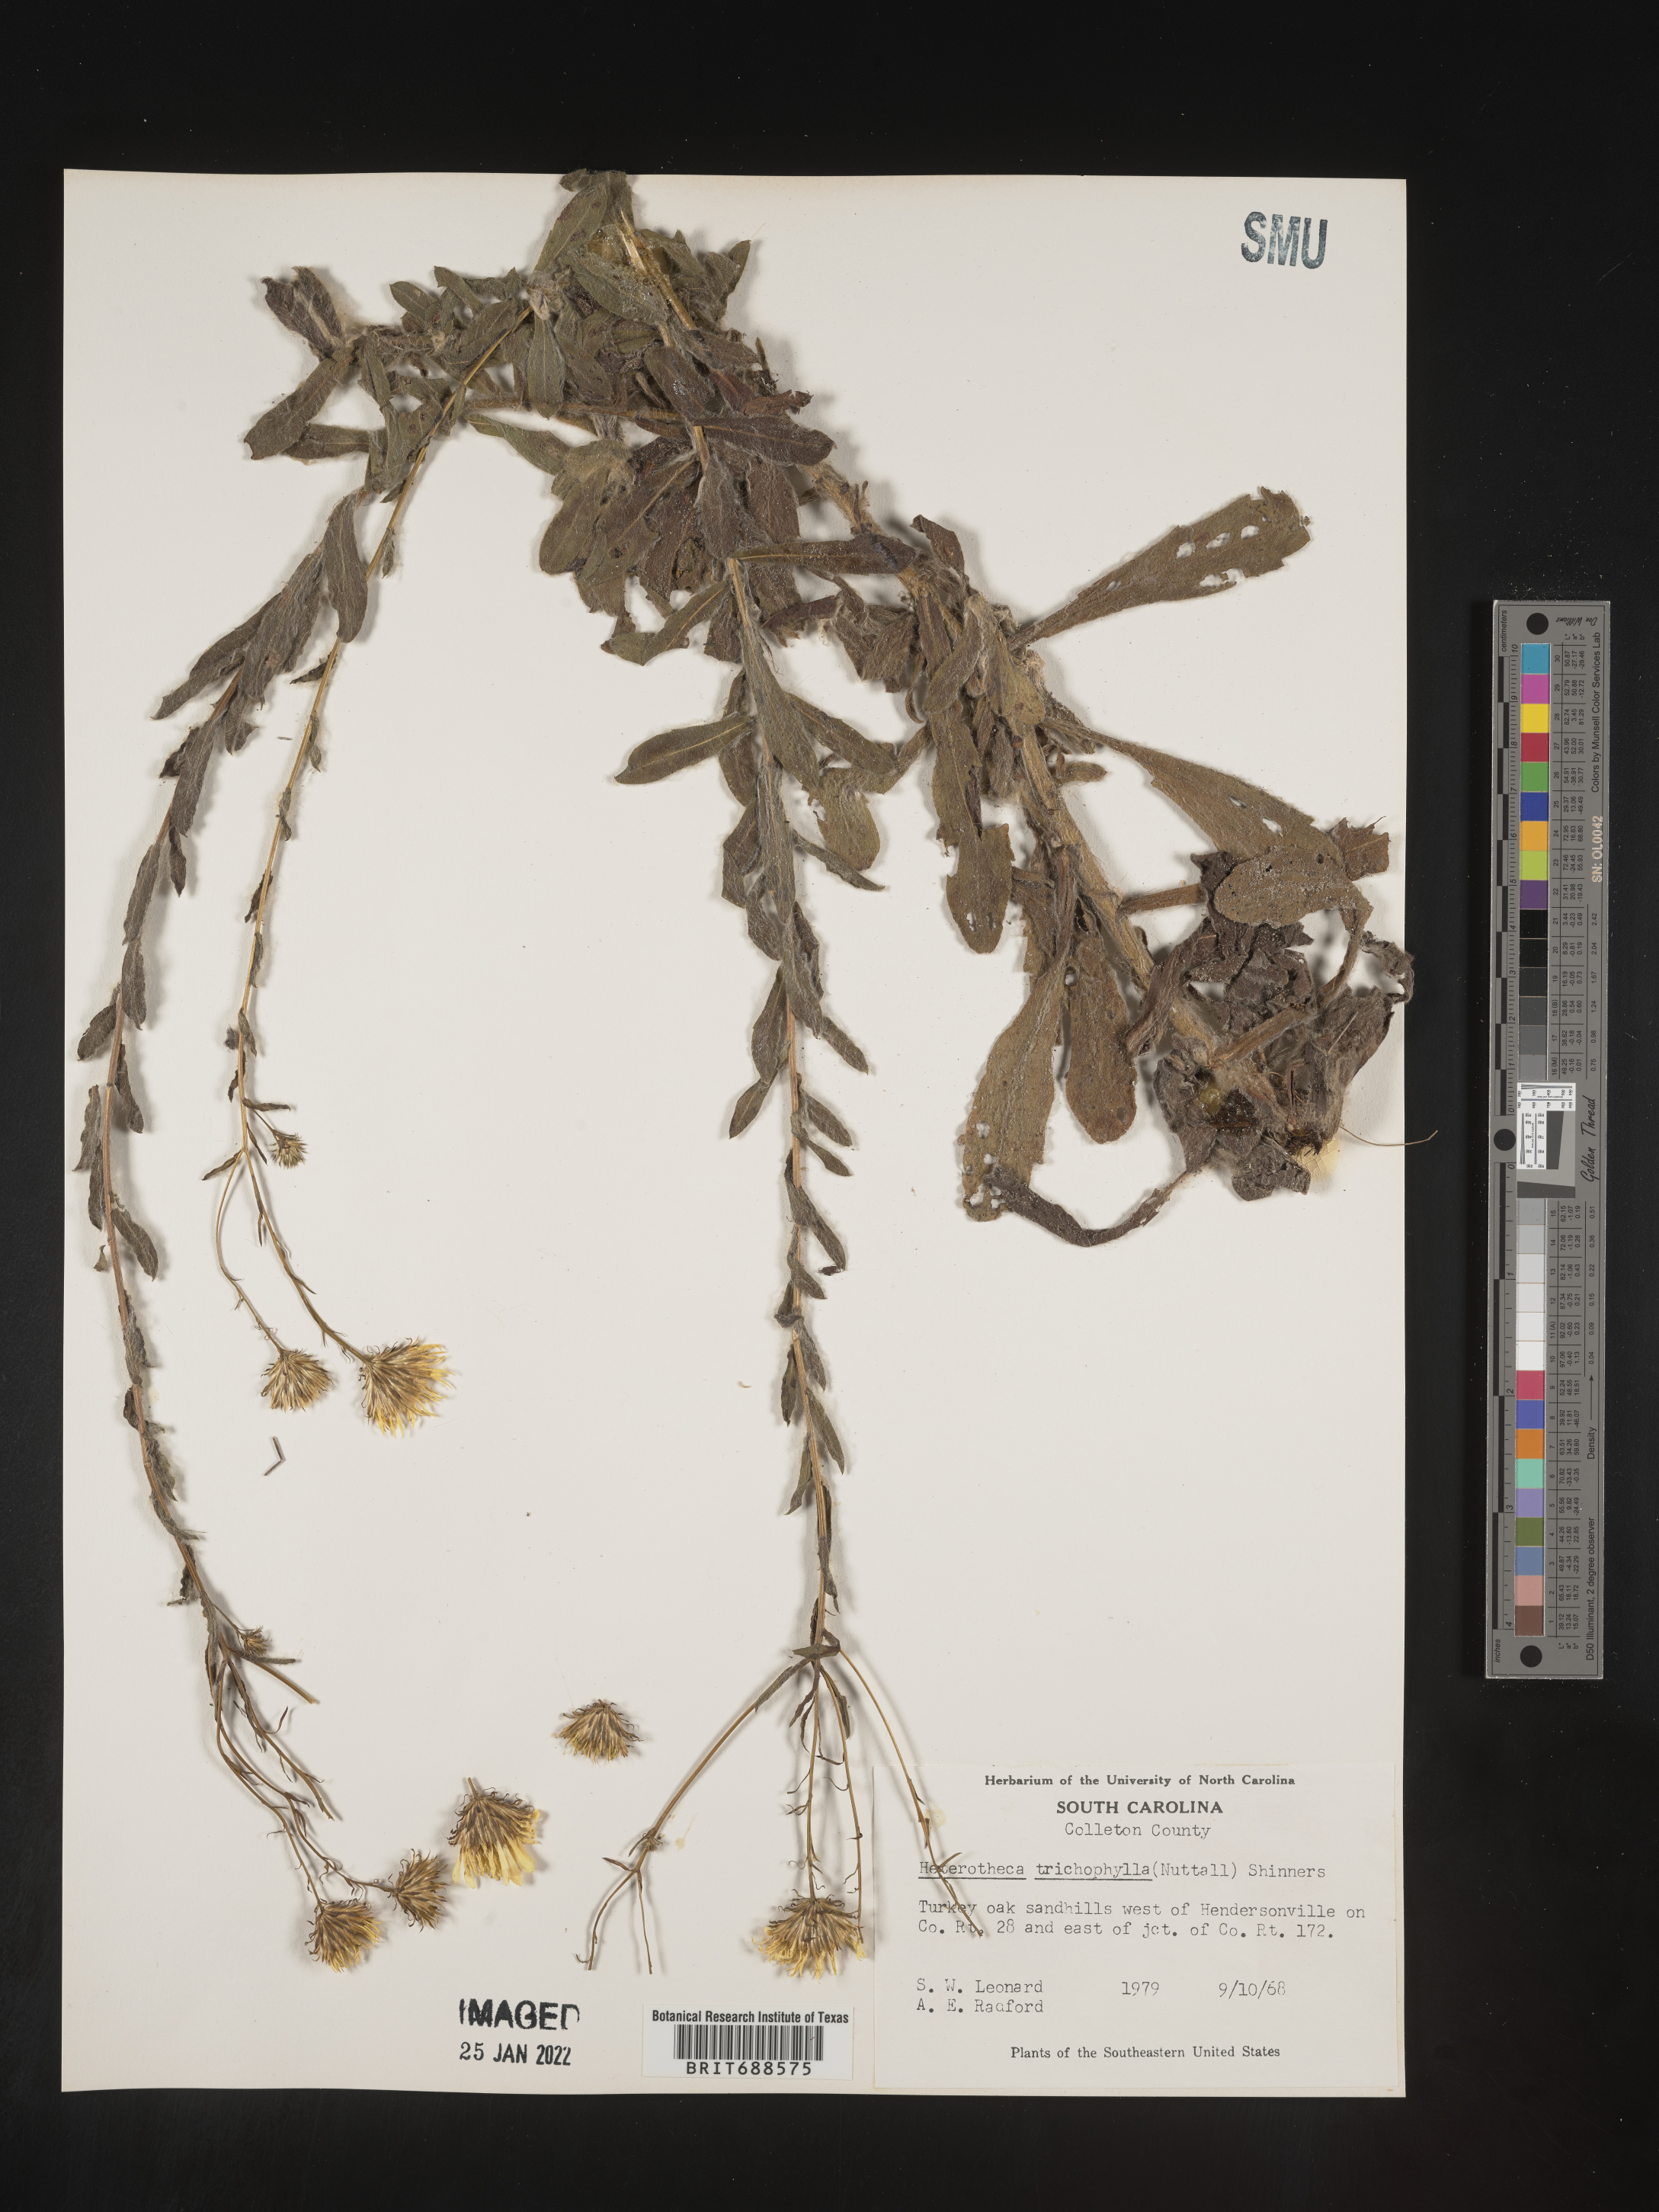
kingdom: Plantae
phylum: Tracheophyta
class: Magnoliopsida
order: Asterales
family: Asteraceae
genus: Chrysopsis
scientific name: Chrysopsis gossypina
